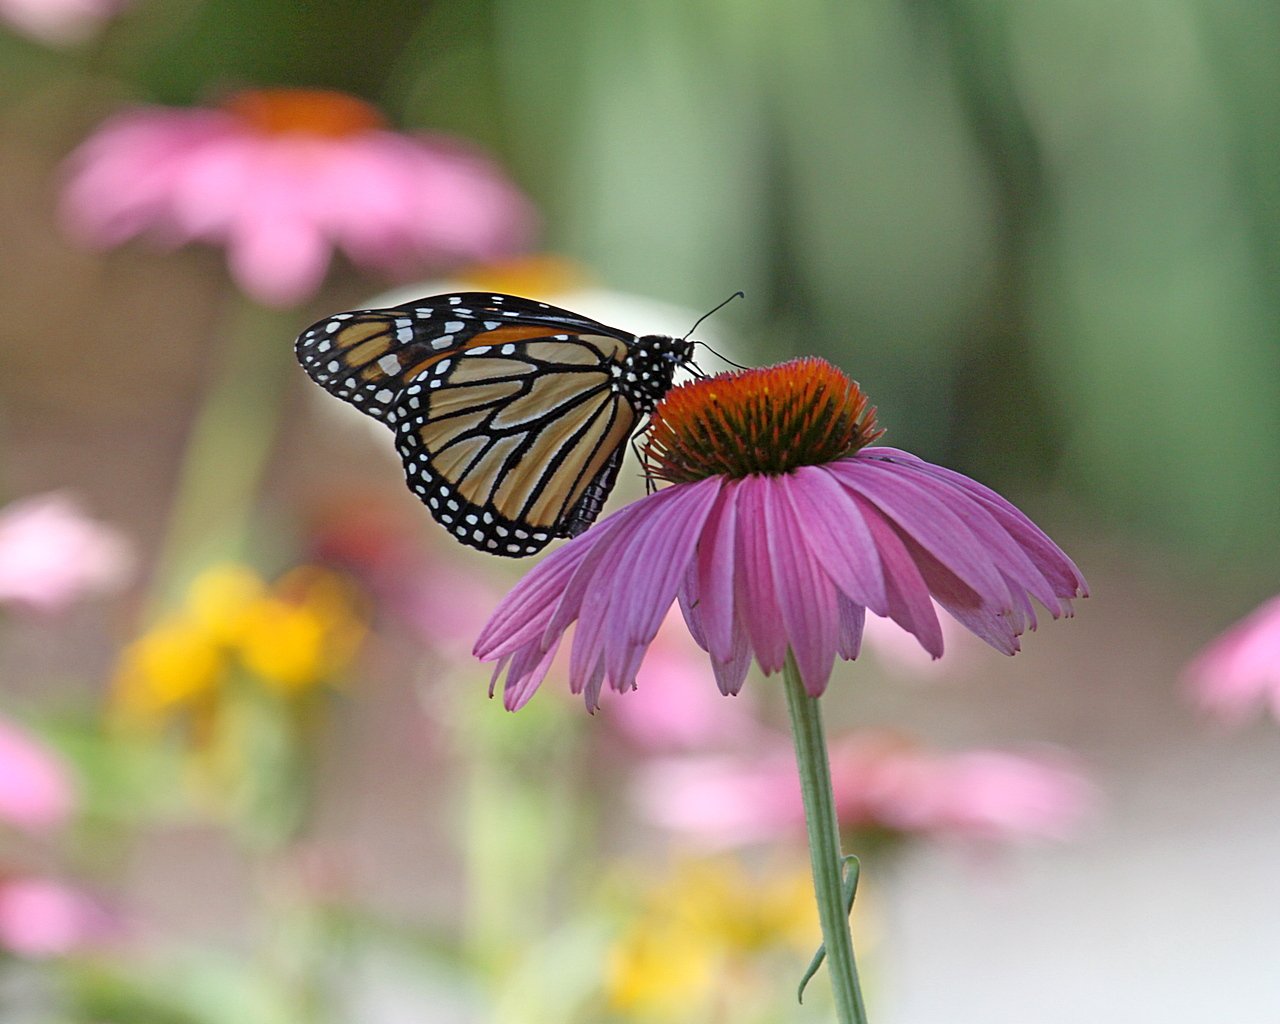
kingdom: Animalia
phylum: Arthropoda
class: Insecta
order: Lepidoptera
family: Nymphalidae
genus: Danaus
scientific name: Danaus plexippus
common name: Monarch
